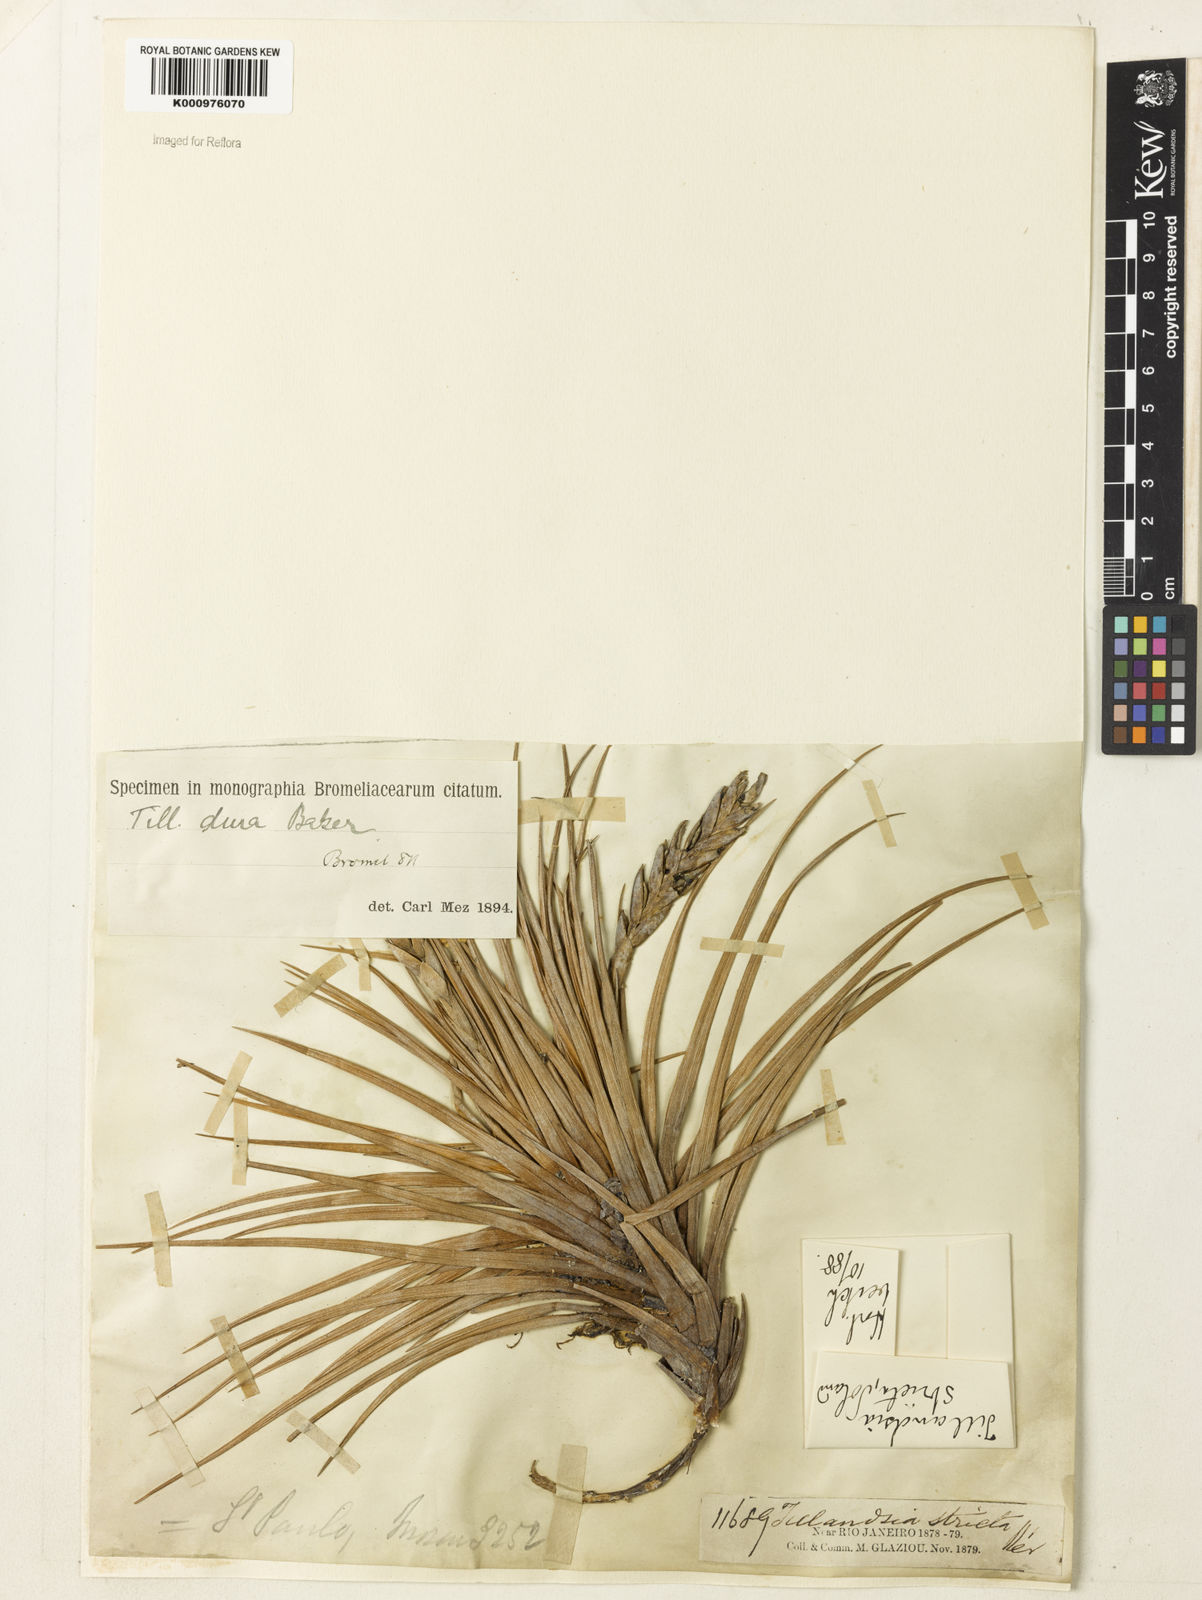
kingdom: Plantae
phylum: Tracheophyta
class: Liliopsida
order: Poales
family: Bromeliaceae
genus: Tillandsia
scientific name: Tillandsia dura
